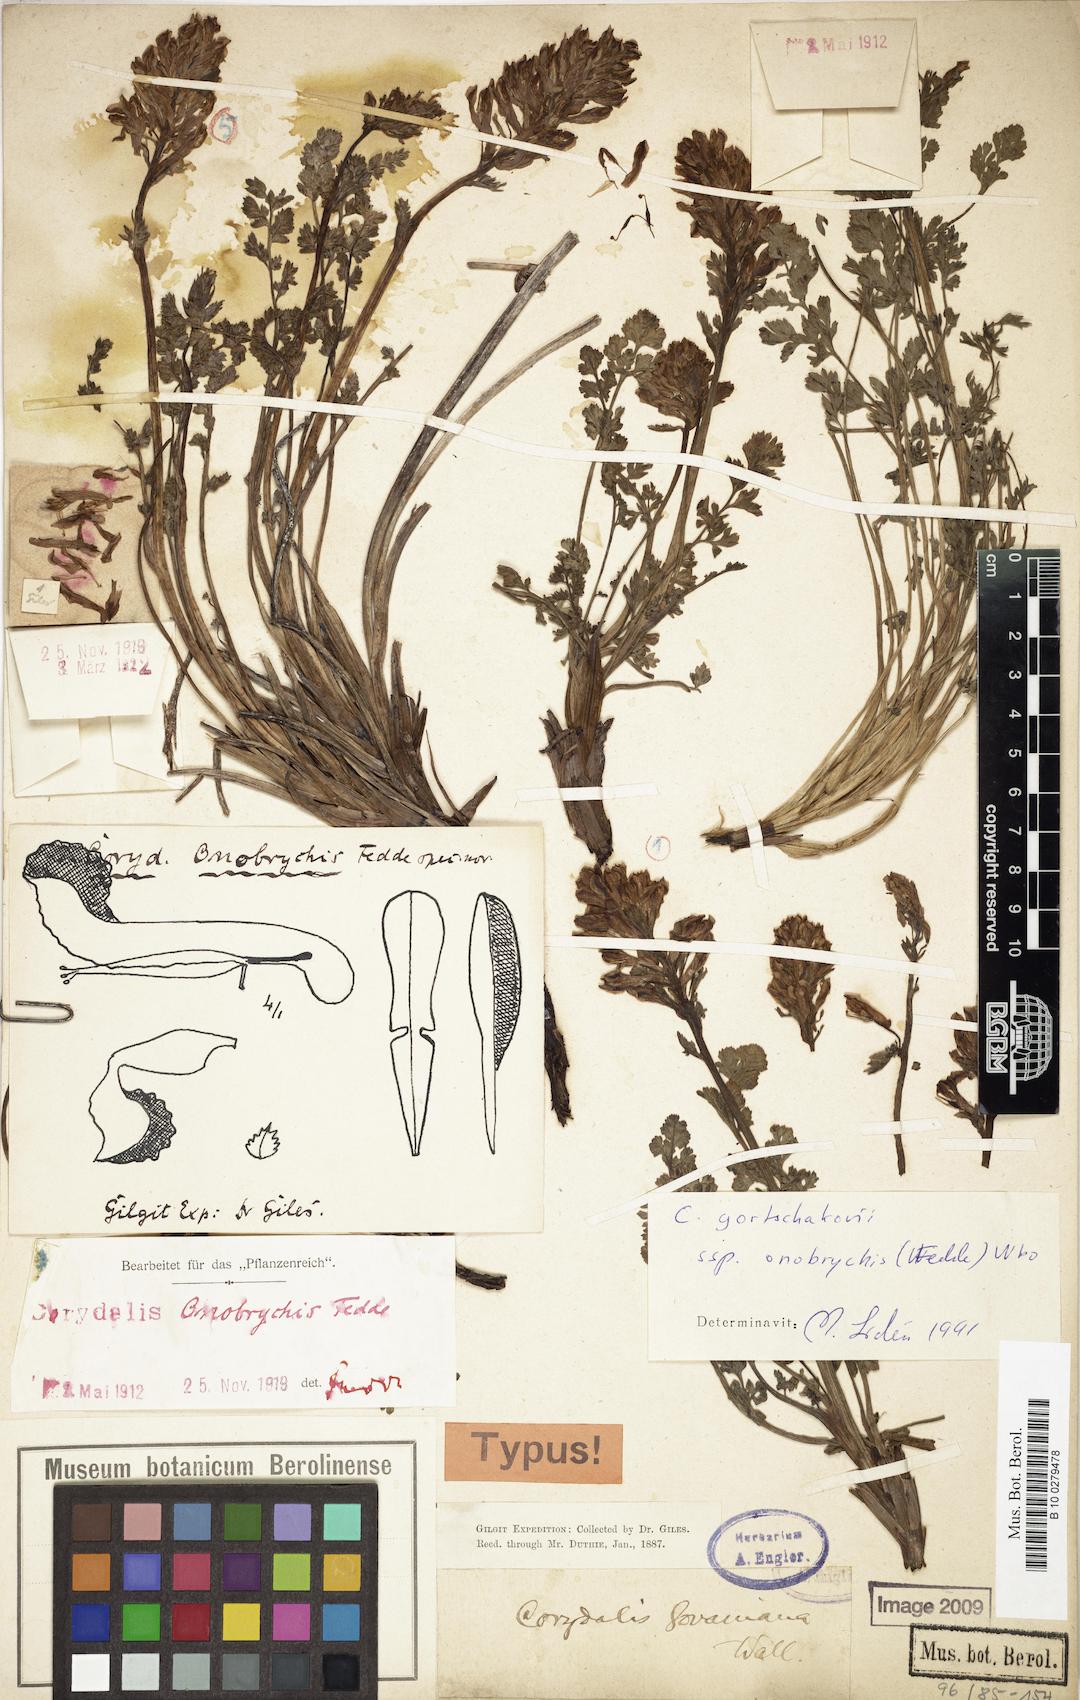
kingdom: Plantae
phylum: Tracheophyta
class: Magnoliopsida
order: Ranunculales
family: Papaveraceae
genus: Corydalis
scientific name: Corydalis onobrychis
